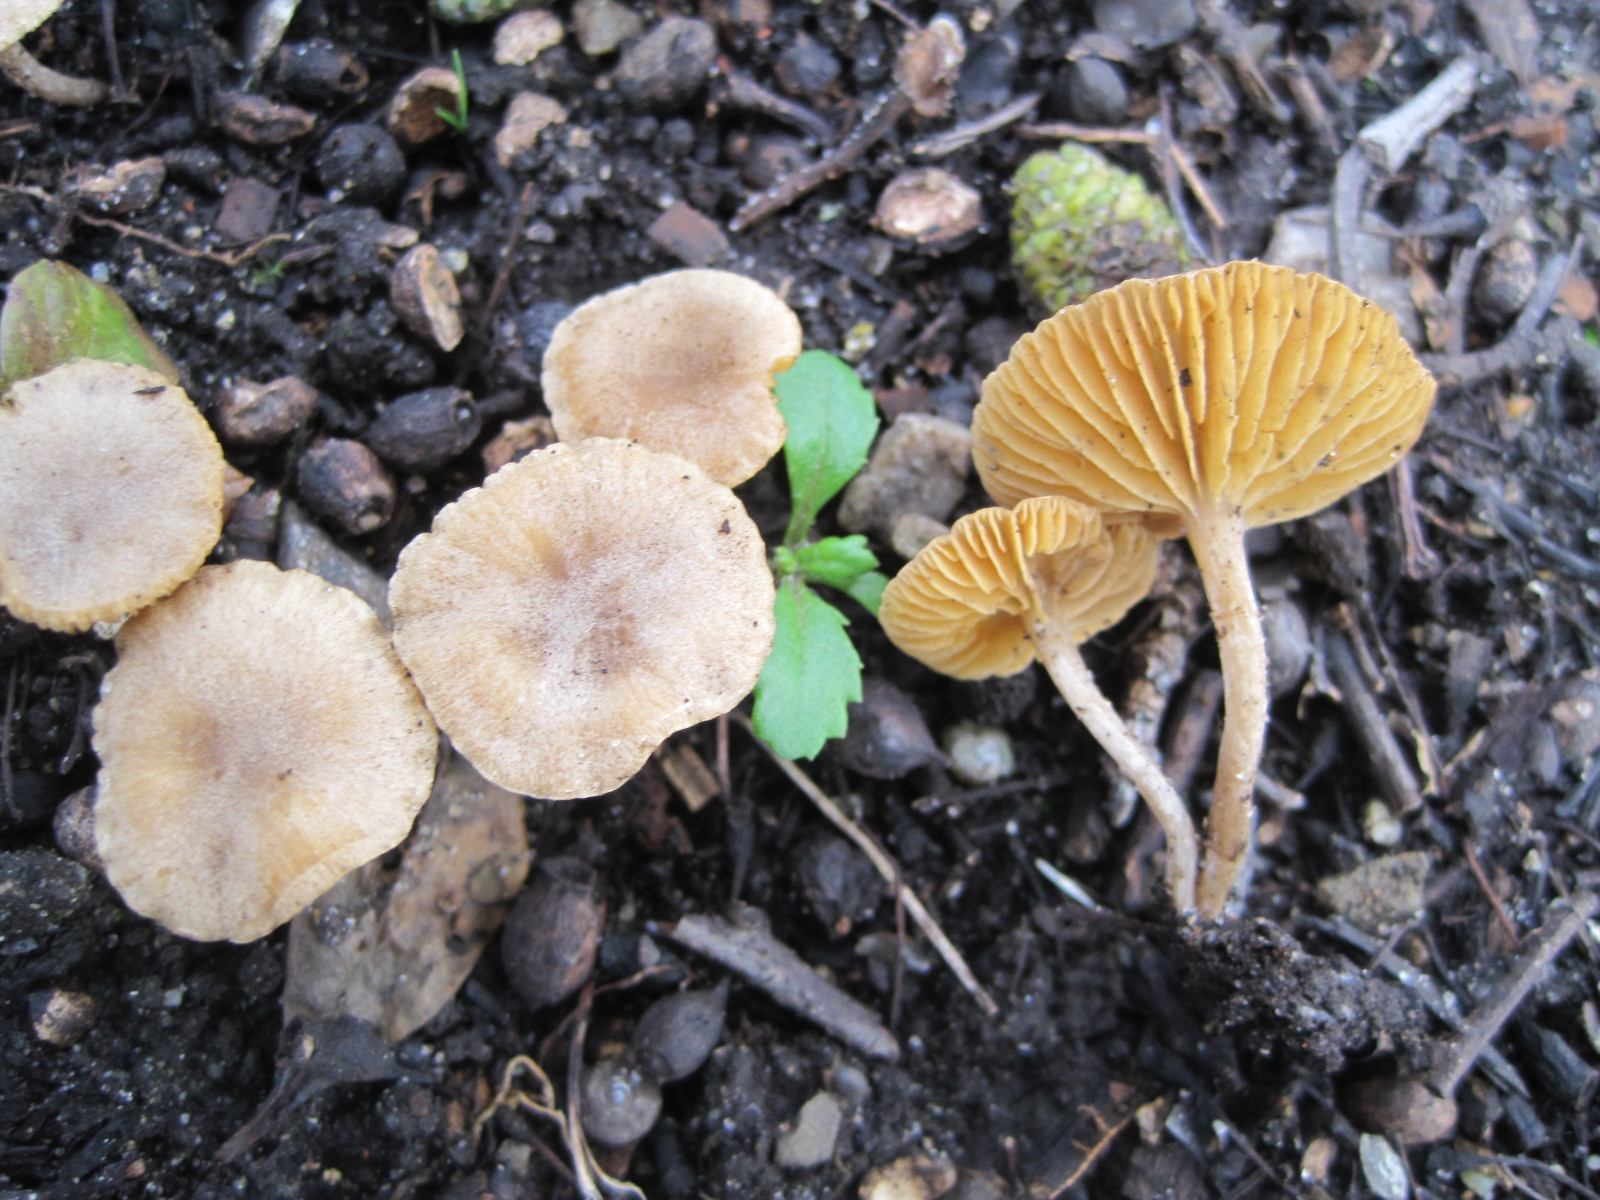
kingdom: Fungi
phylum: Basidiomycota
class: Agaricomycetes
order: Agaricales
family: Tubariaceae
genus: Tubaria
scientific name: Tubaria dispersa
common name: tjørne-fnughat
